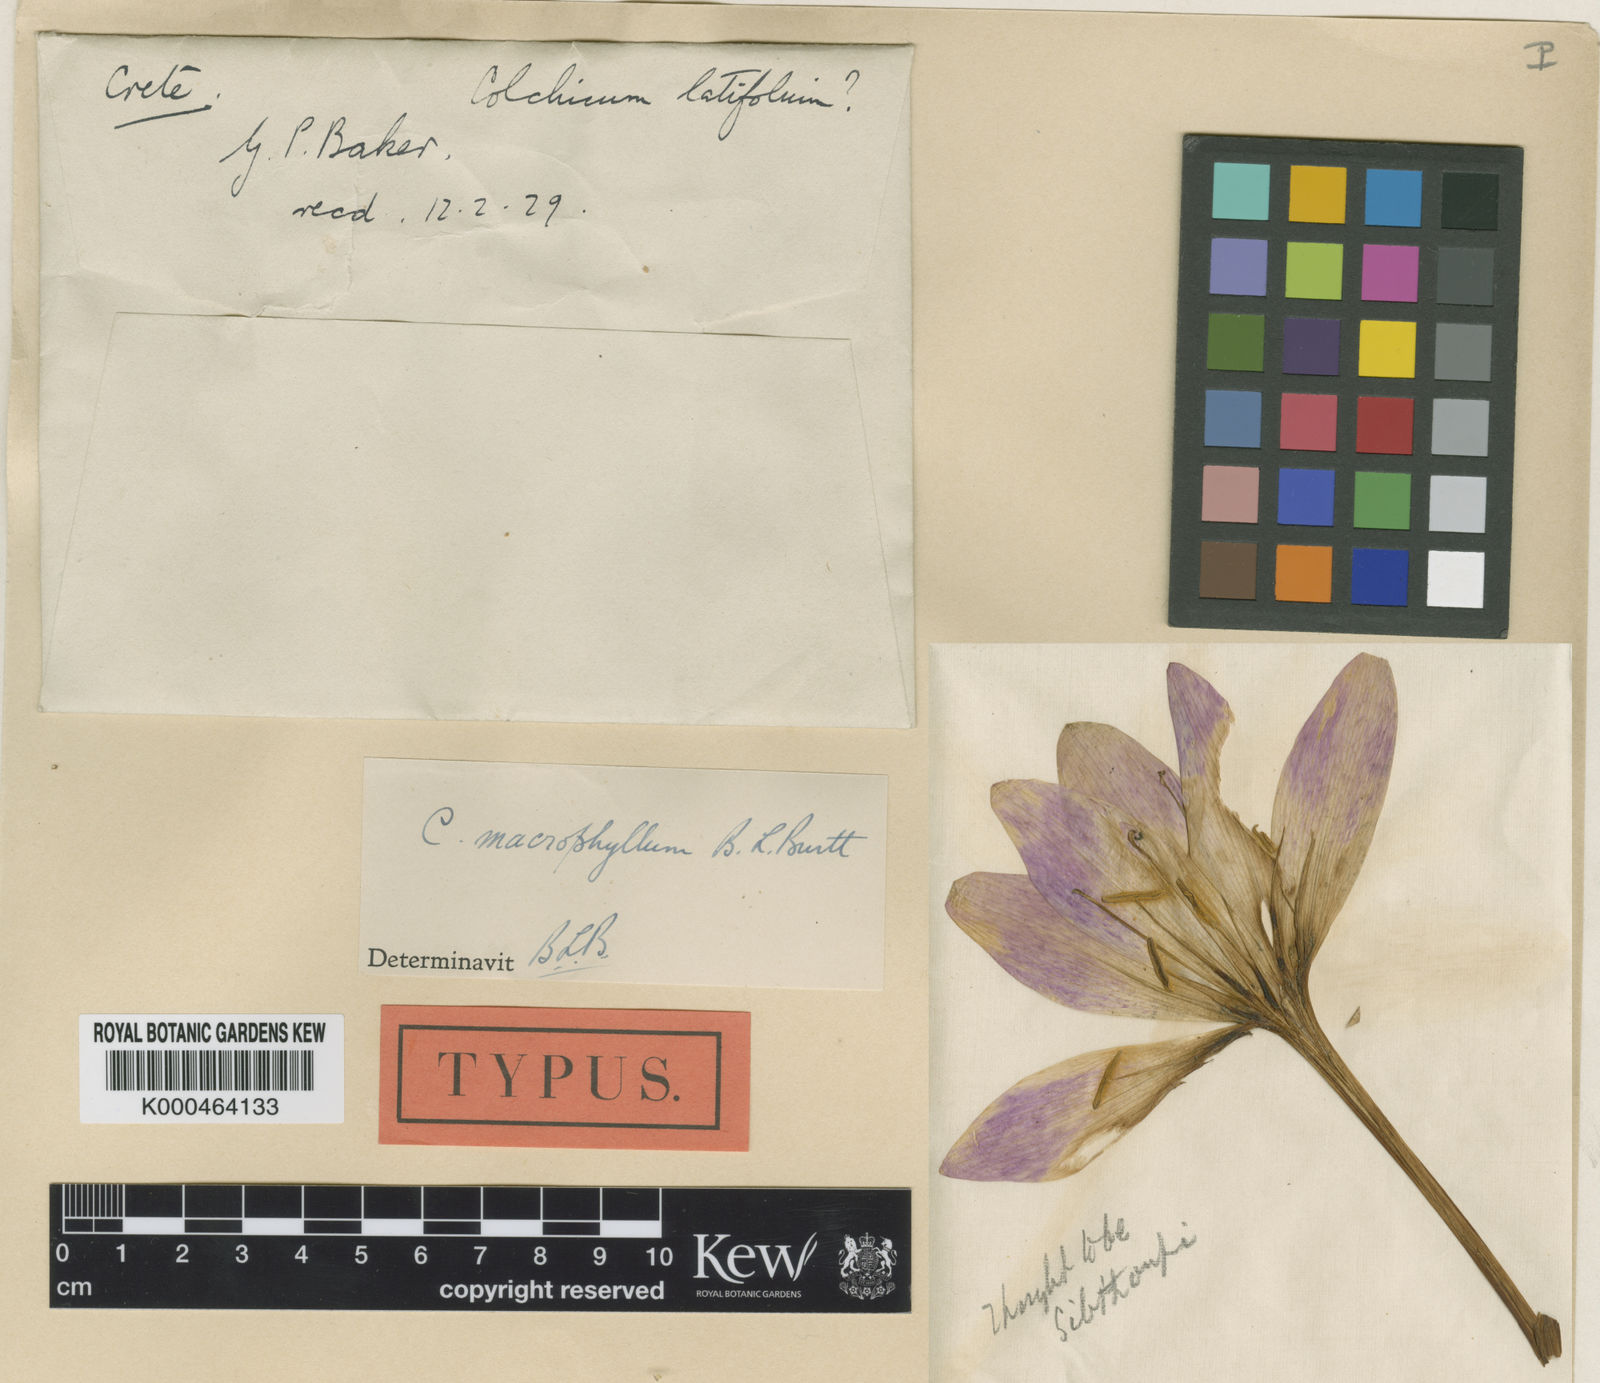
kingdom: Plantae
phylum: Tracheophyta
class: Liliopsida
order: Liliales
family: Colchicaceae
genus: Colchicum
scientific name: Colchicum macrophyllum
